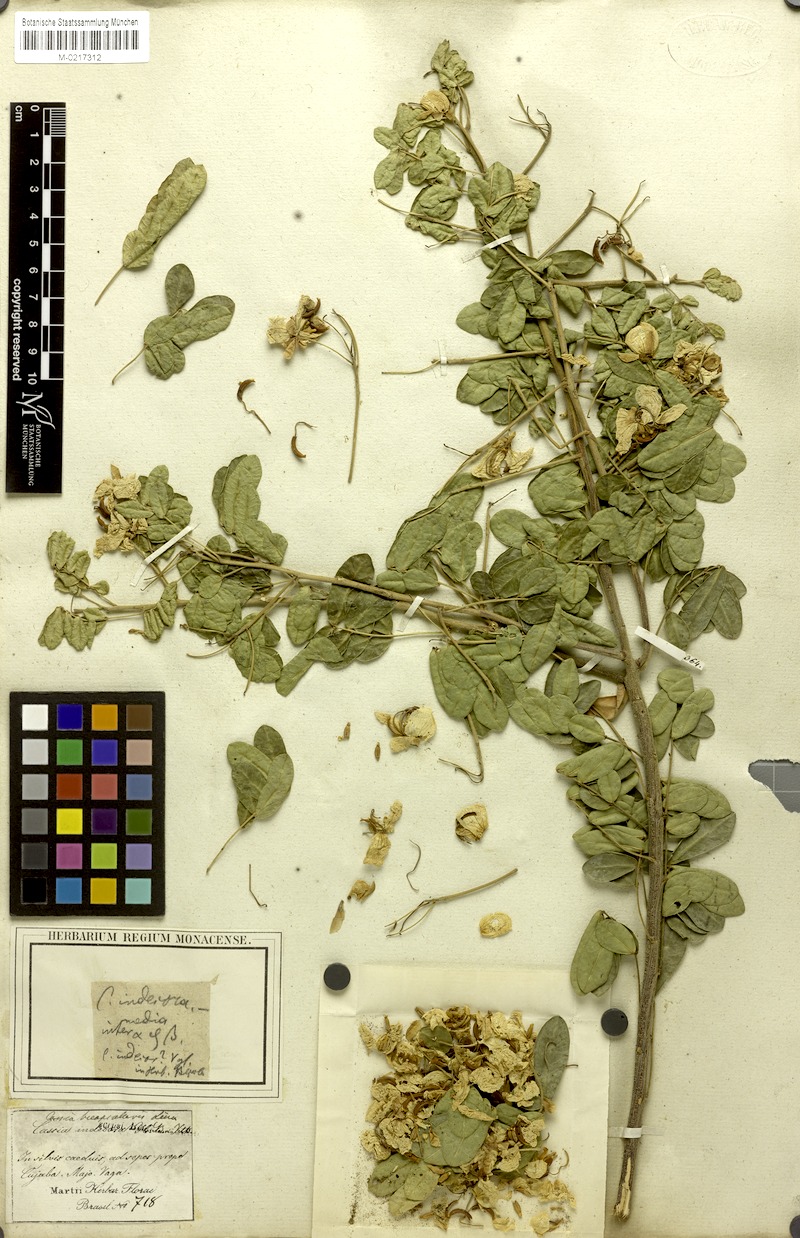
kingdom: Plantae
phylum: Tracheophyta
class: Magnoliopsida
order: Fabales
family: Fabaceae
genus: Senna
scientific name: Senna pendula
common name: Easter cassia
